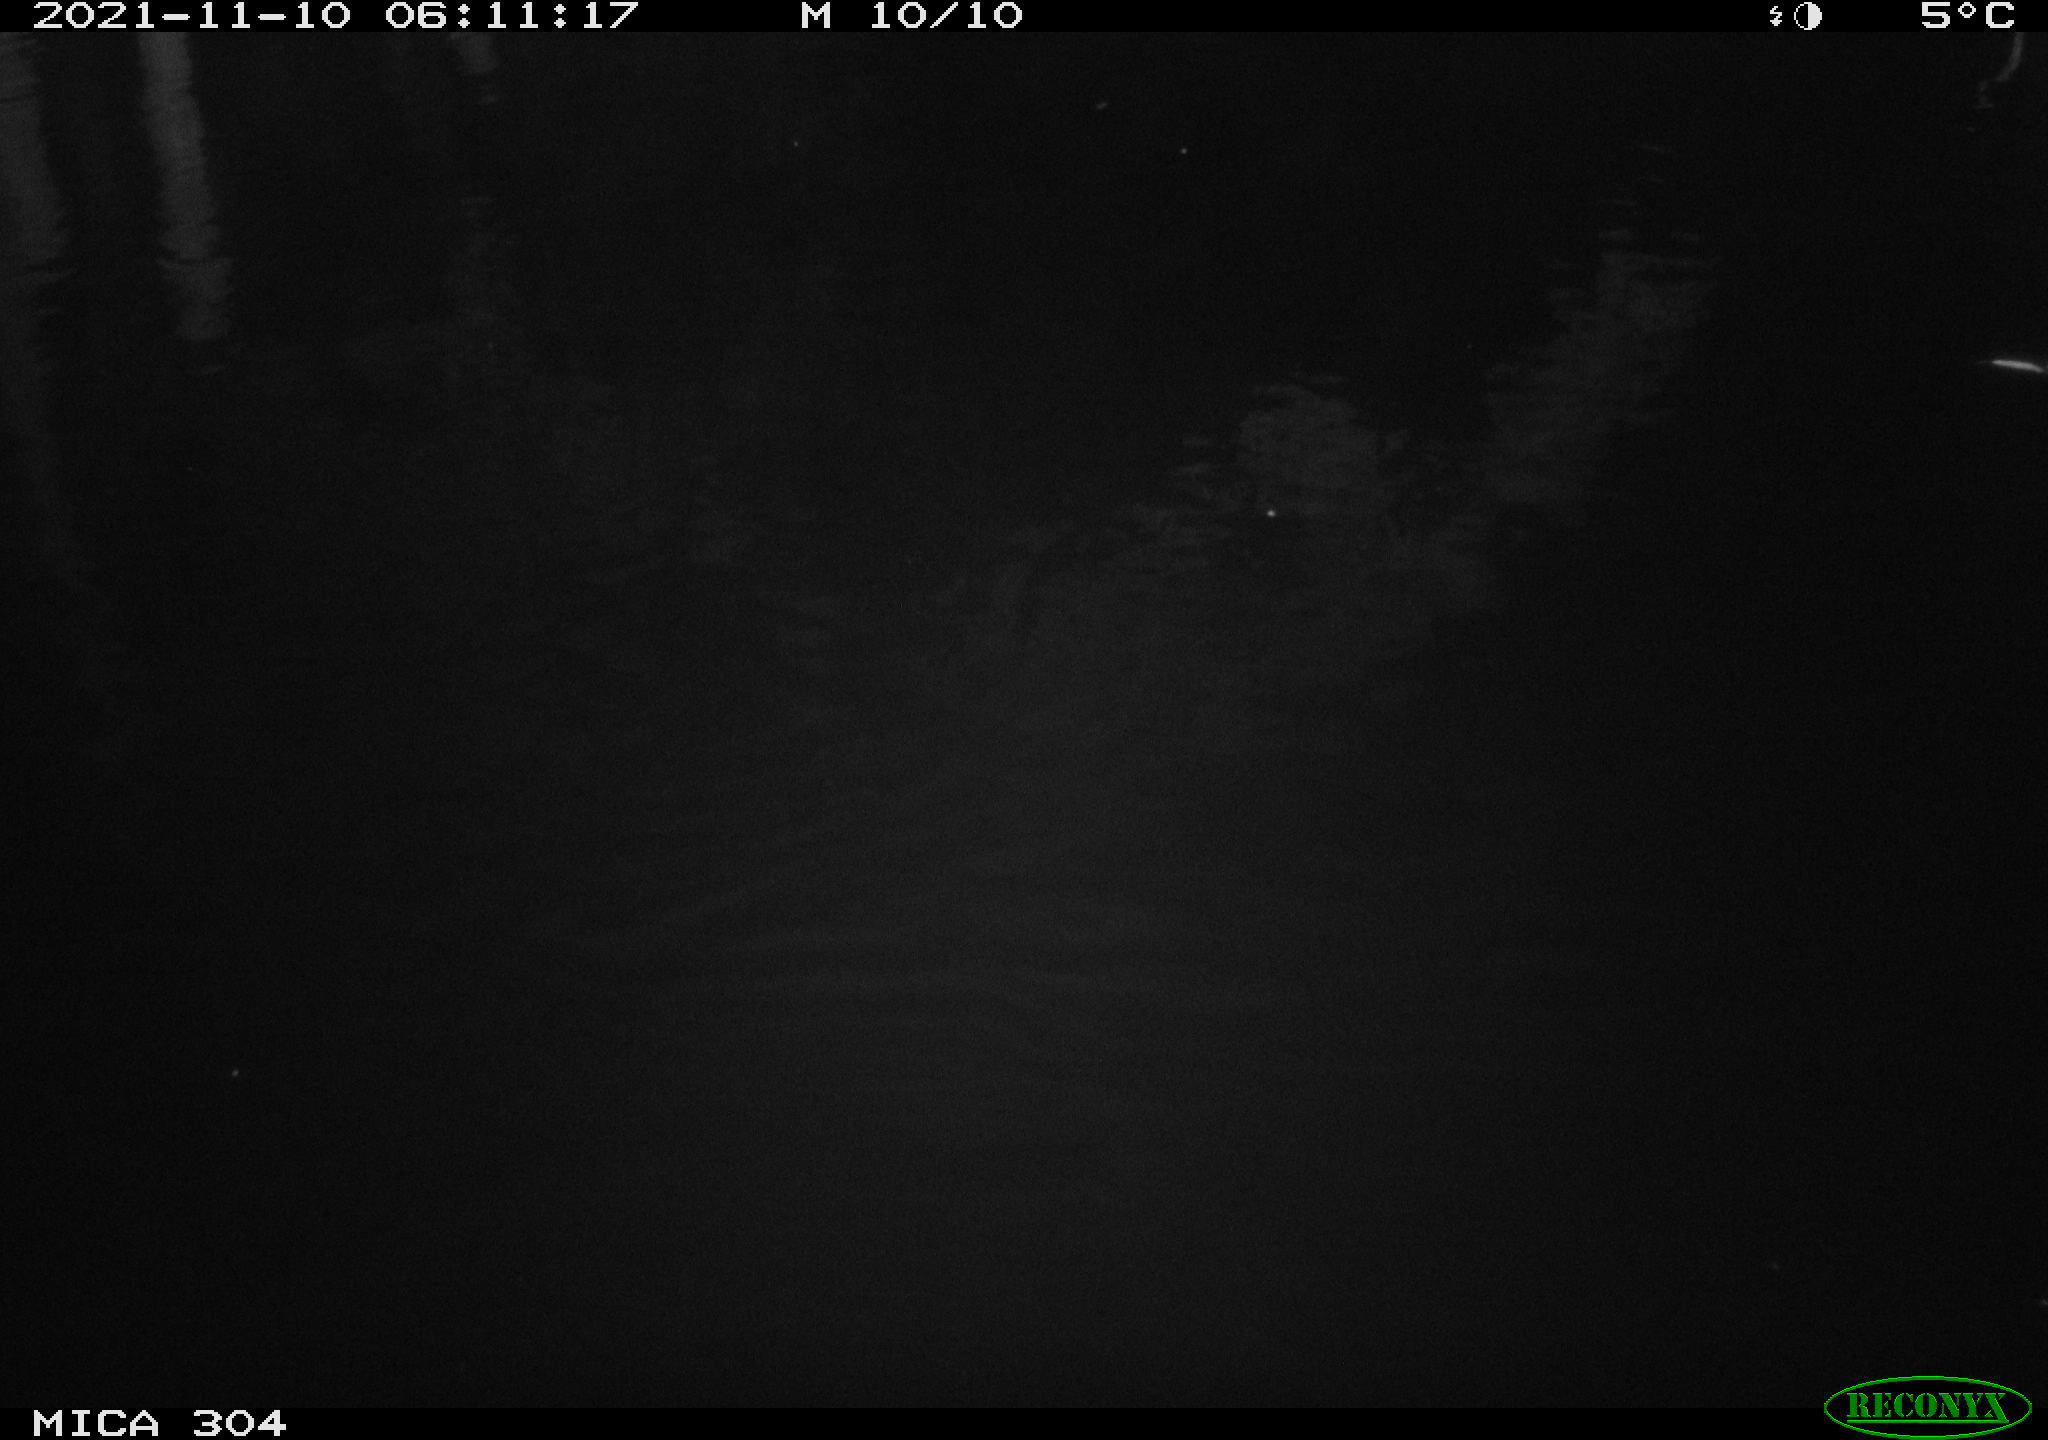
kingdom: Animalia
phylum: Chordata
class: Mammalia
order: Rodentia
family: Muridae
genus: Rattus
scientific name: Rattus norvegicus
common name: Brown rat
